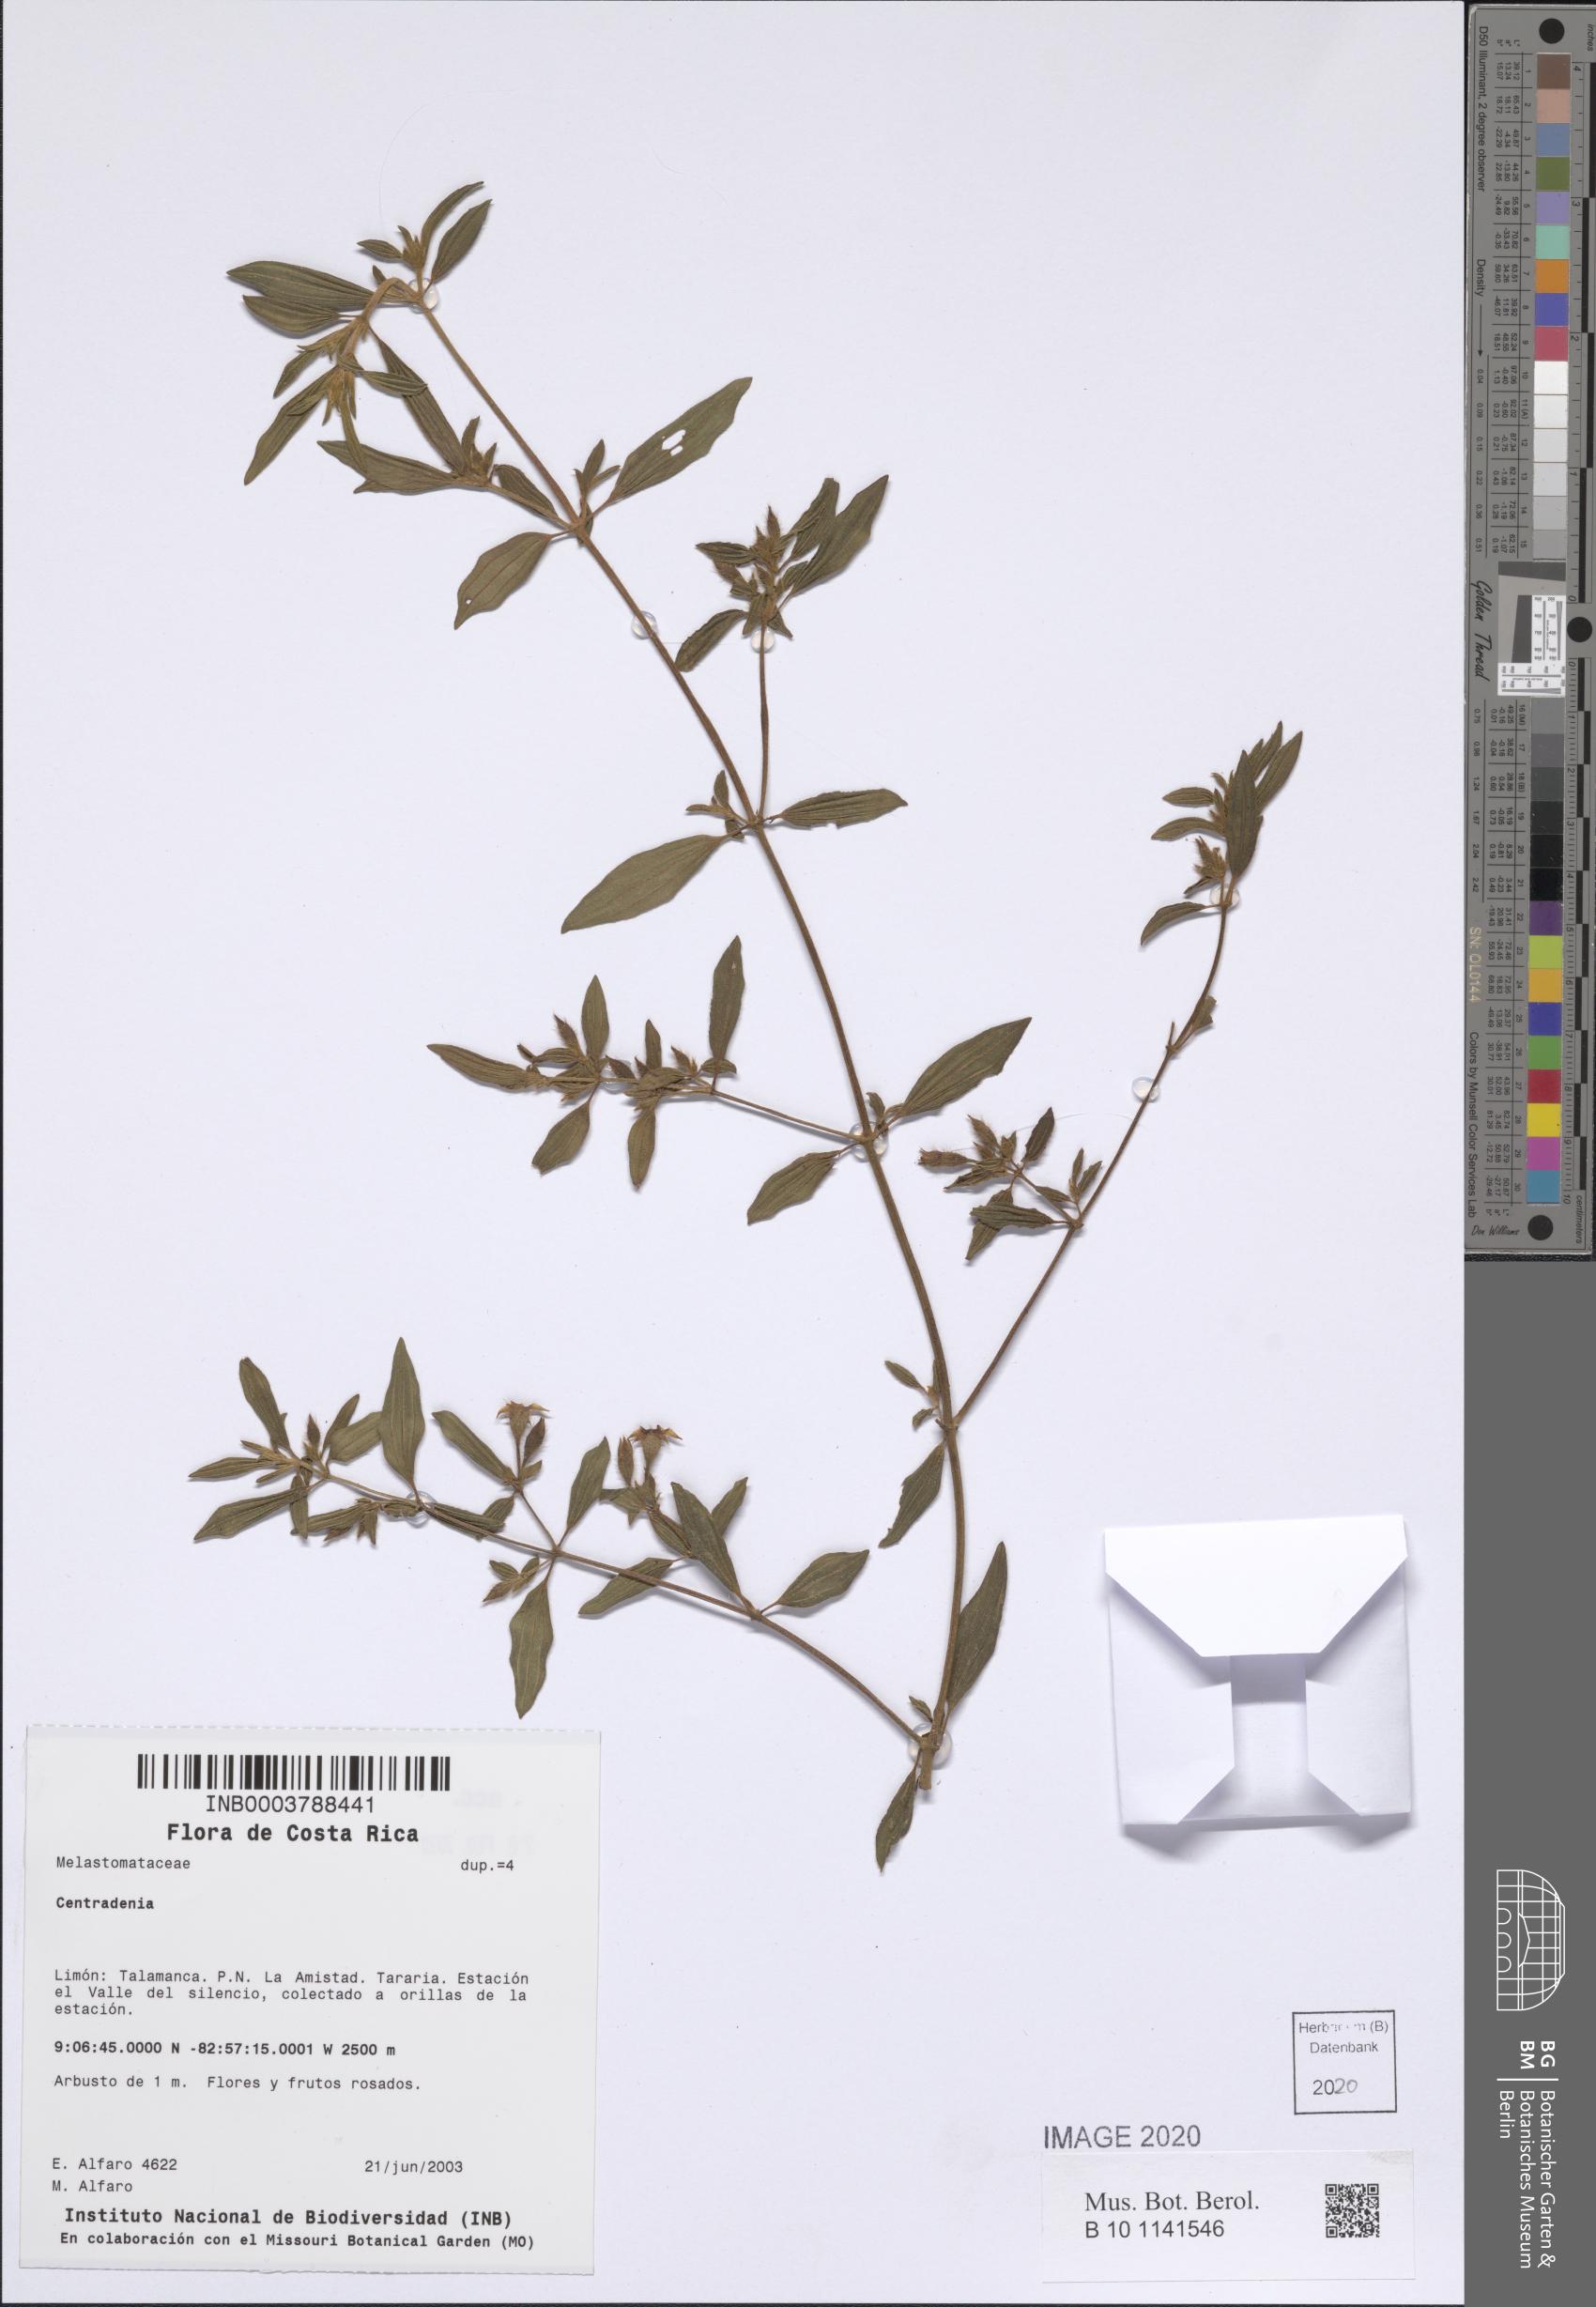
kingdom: Plantae
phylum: Tracheophyta
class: Magnoliopsida
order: Myrtales
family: Melastomataceae
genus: Centradenia
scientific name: Centradenia
